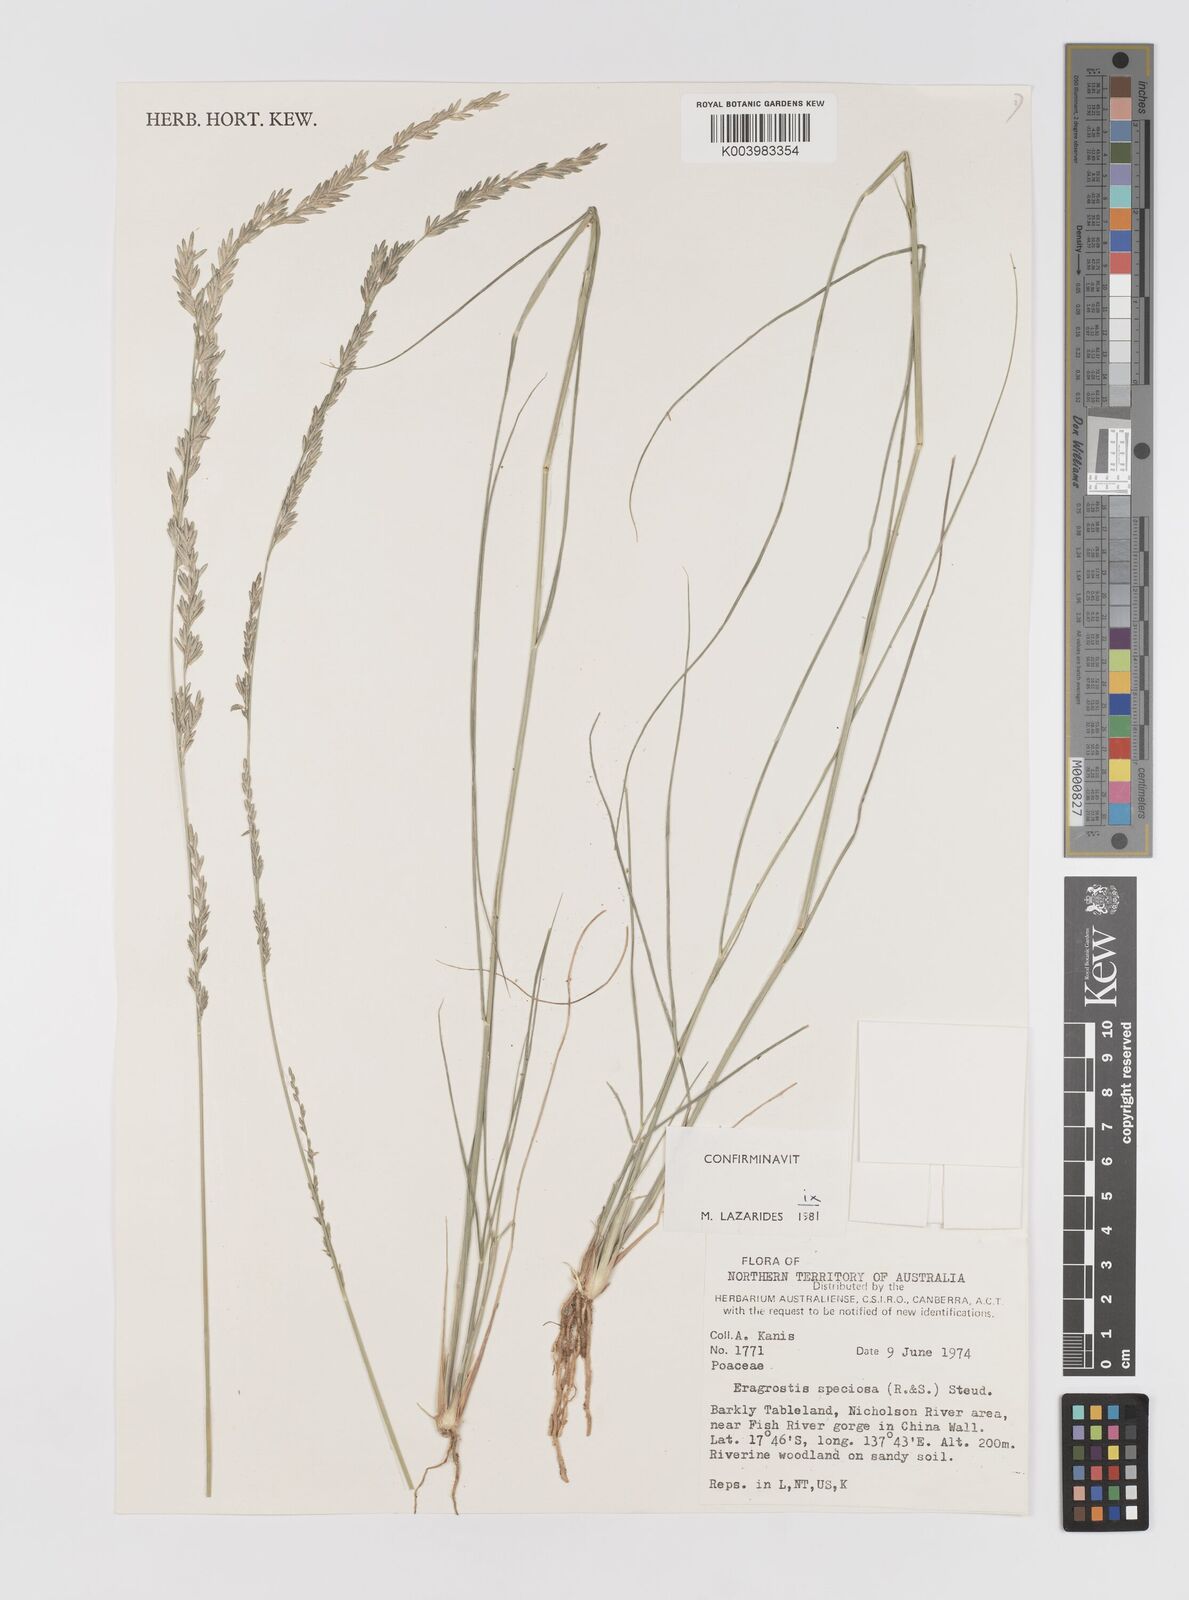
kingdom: Plantae
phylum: Tracheophyta
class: Liliopsida
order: Poales
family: Poaceae
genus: Eragrostis
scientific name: Eragrostis speciosa
